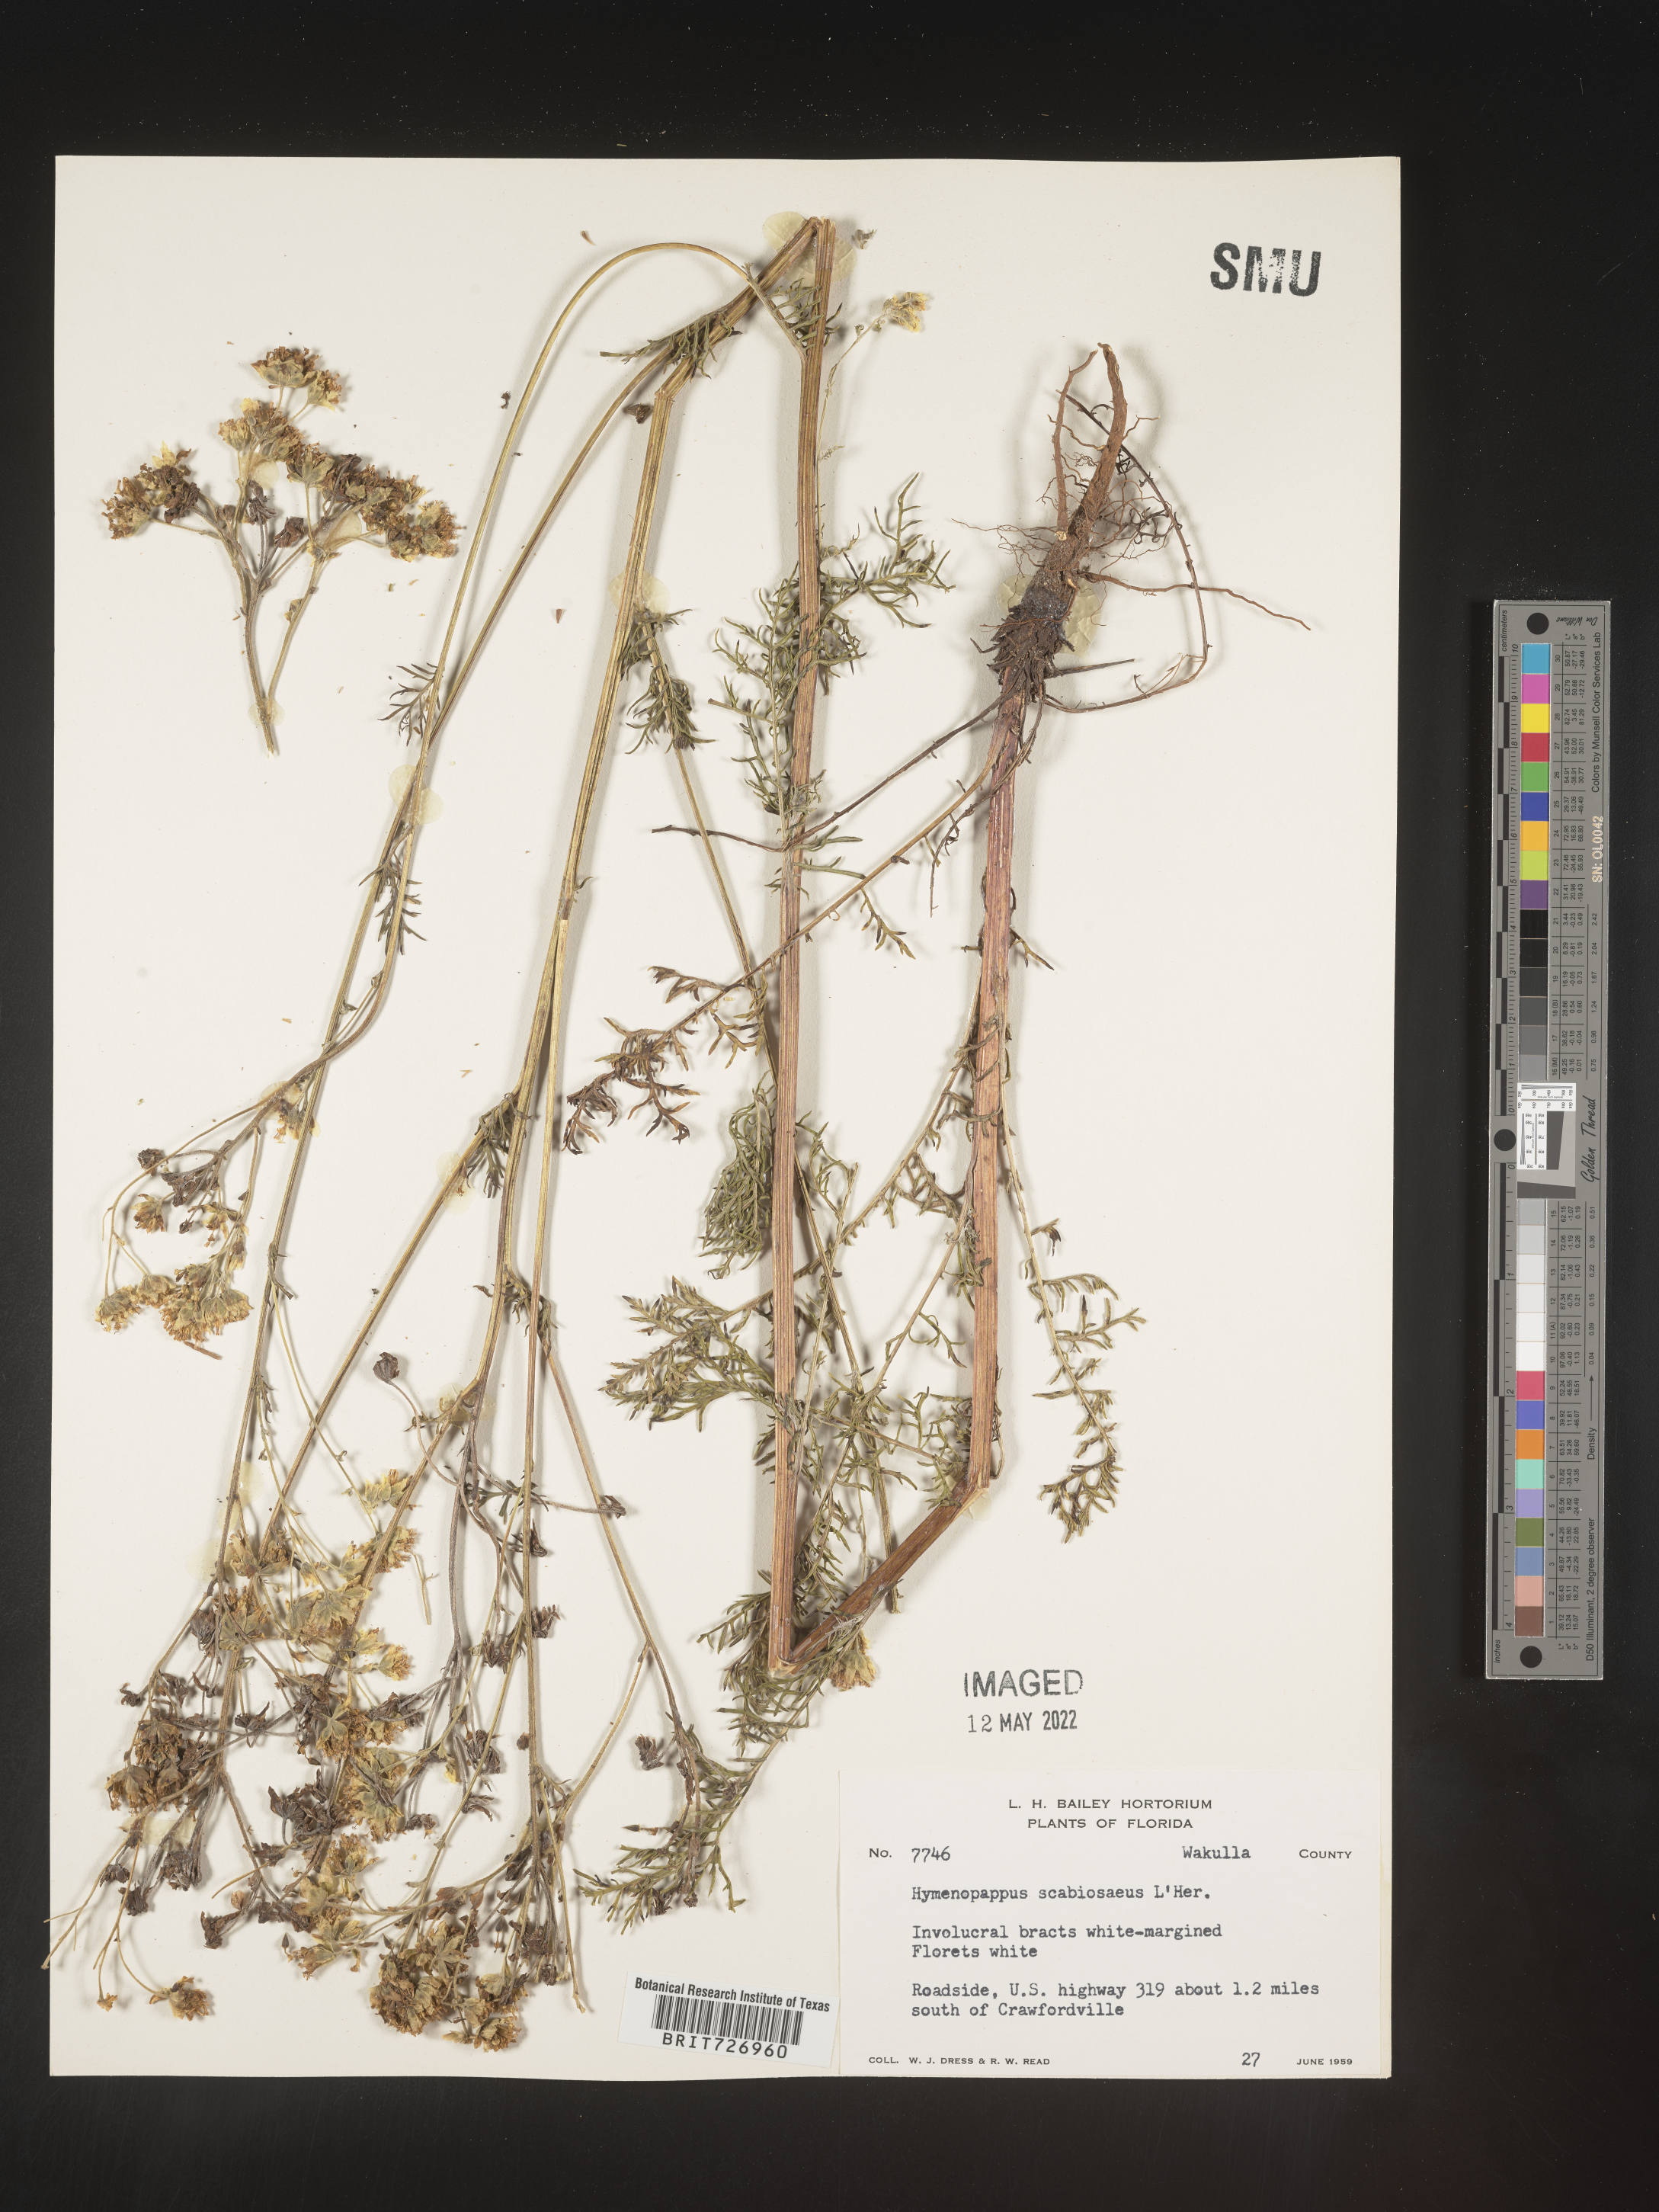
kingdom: Plantae
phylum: Tracheophyta
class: Magnoliopsida
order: Asterales
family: Asteraceae
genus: Hymenopappus
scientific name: Hymenopappus scabiosaeus
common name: Carolina woollywhite
